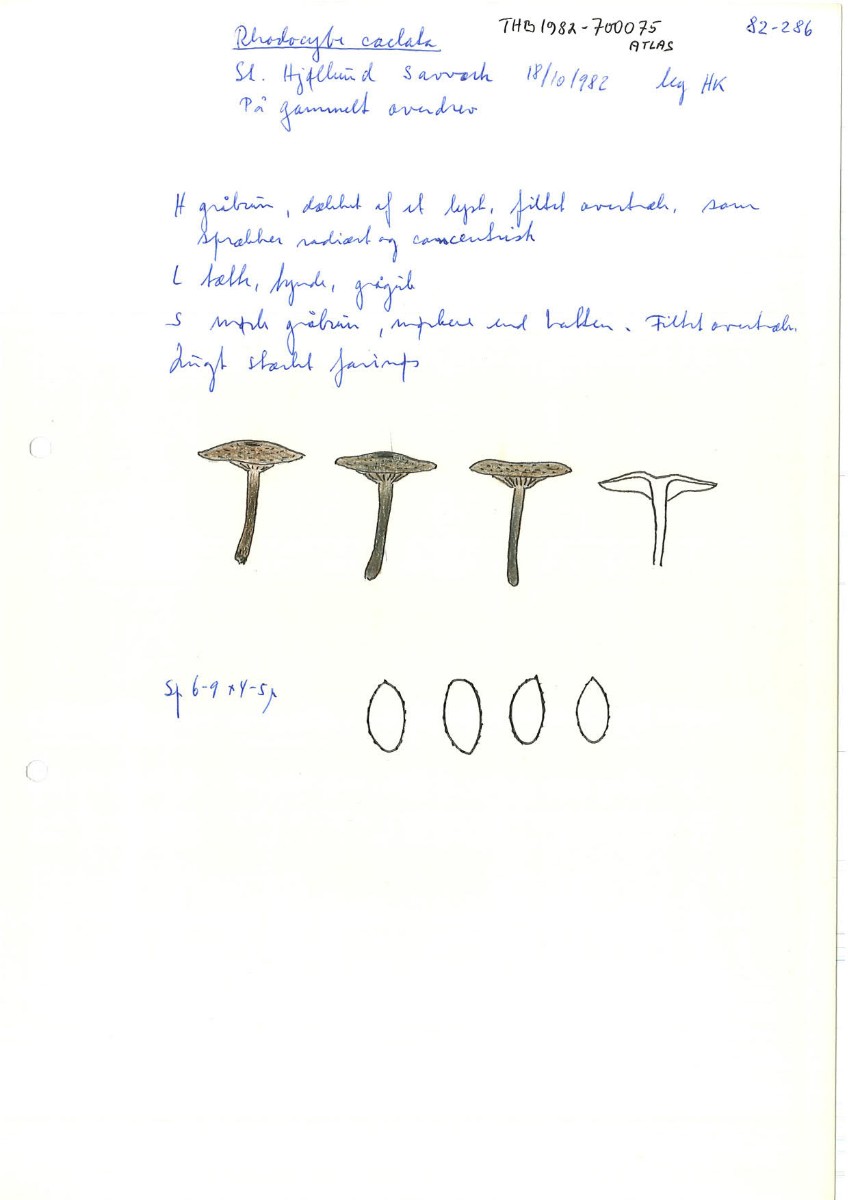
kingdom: Fungi
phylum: Basidiomycota
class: Agaricomycetes
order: Agaricales
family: Entolomataceae
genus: Rhodocybe
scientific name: Rhodocybe
